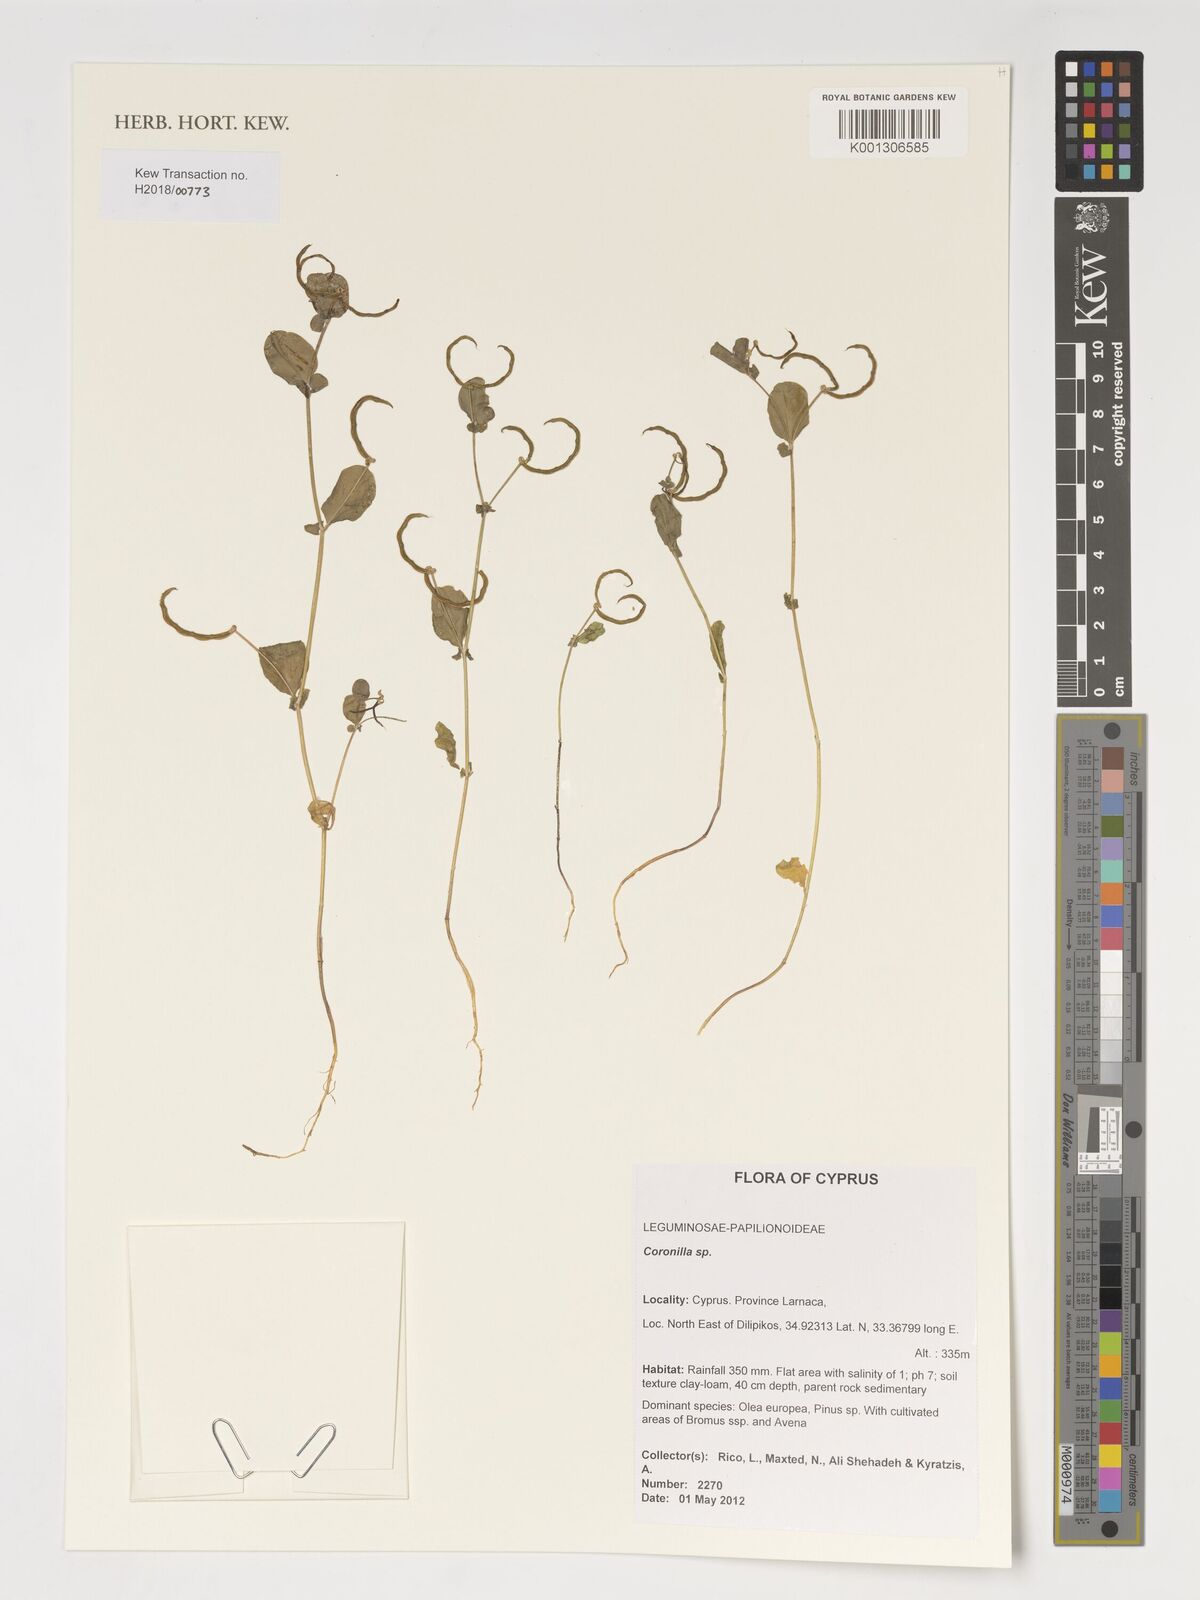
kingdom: Plantae
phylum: Tracheophyta
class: Magnoliopsida
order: Fabales
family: Fabaceae
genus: Coronilla
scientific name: Coronilla
